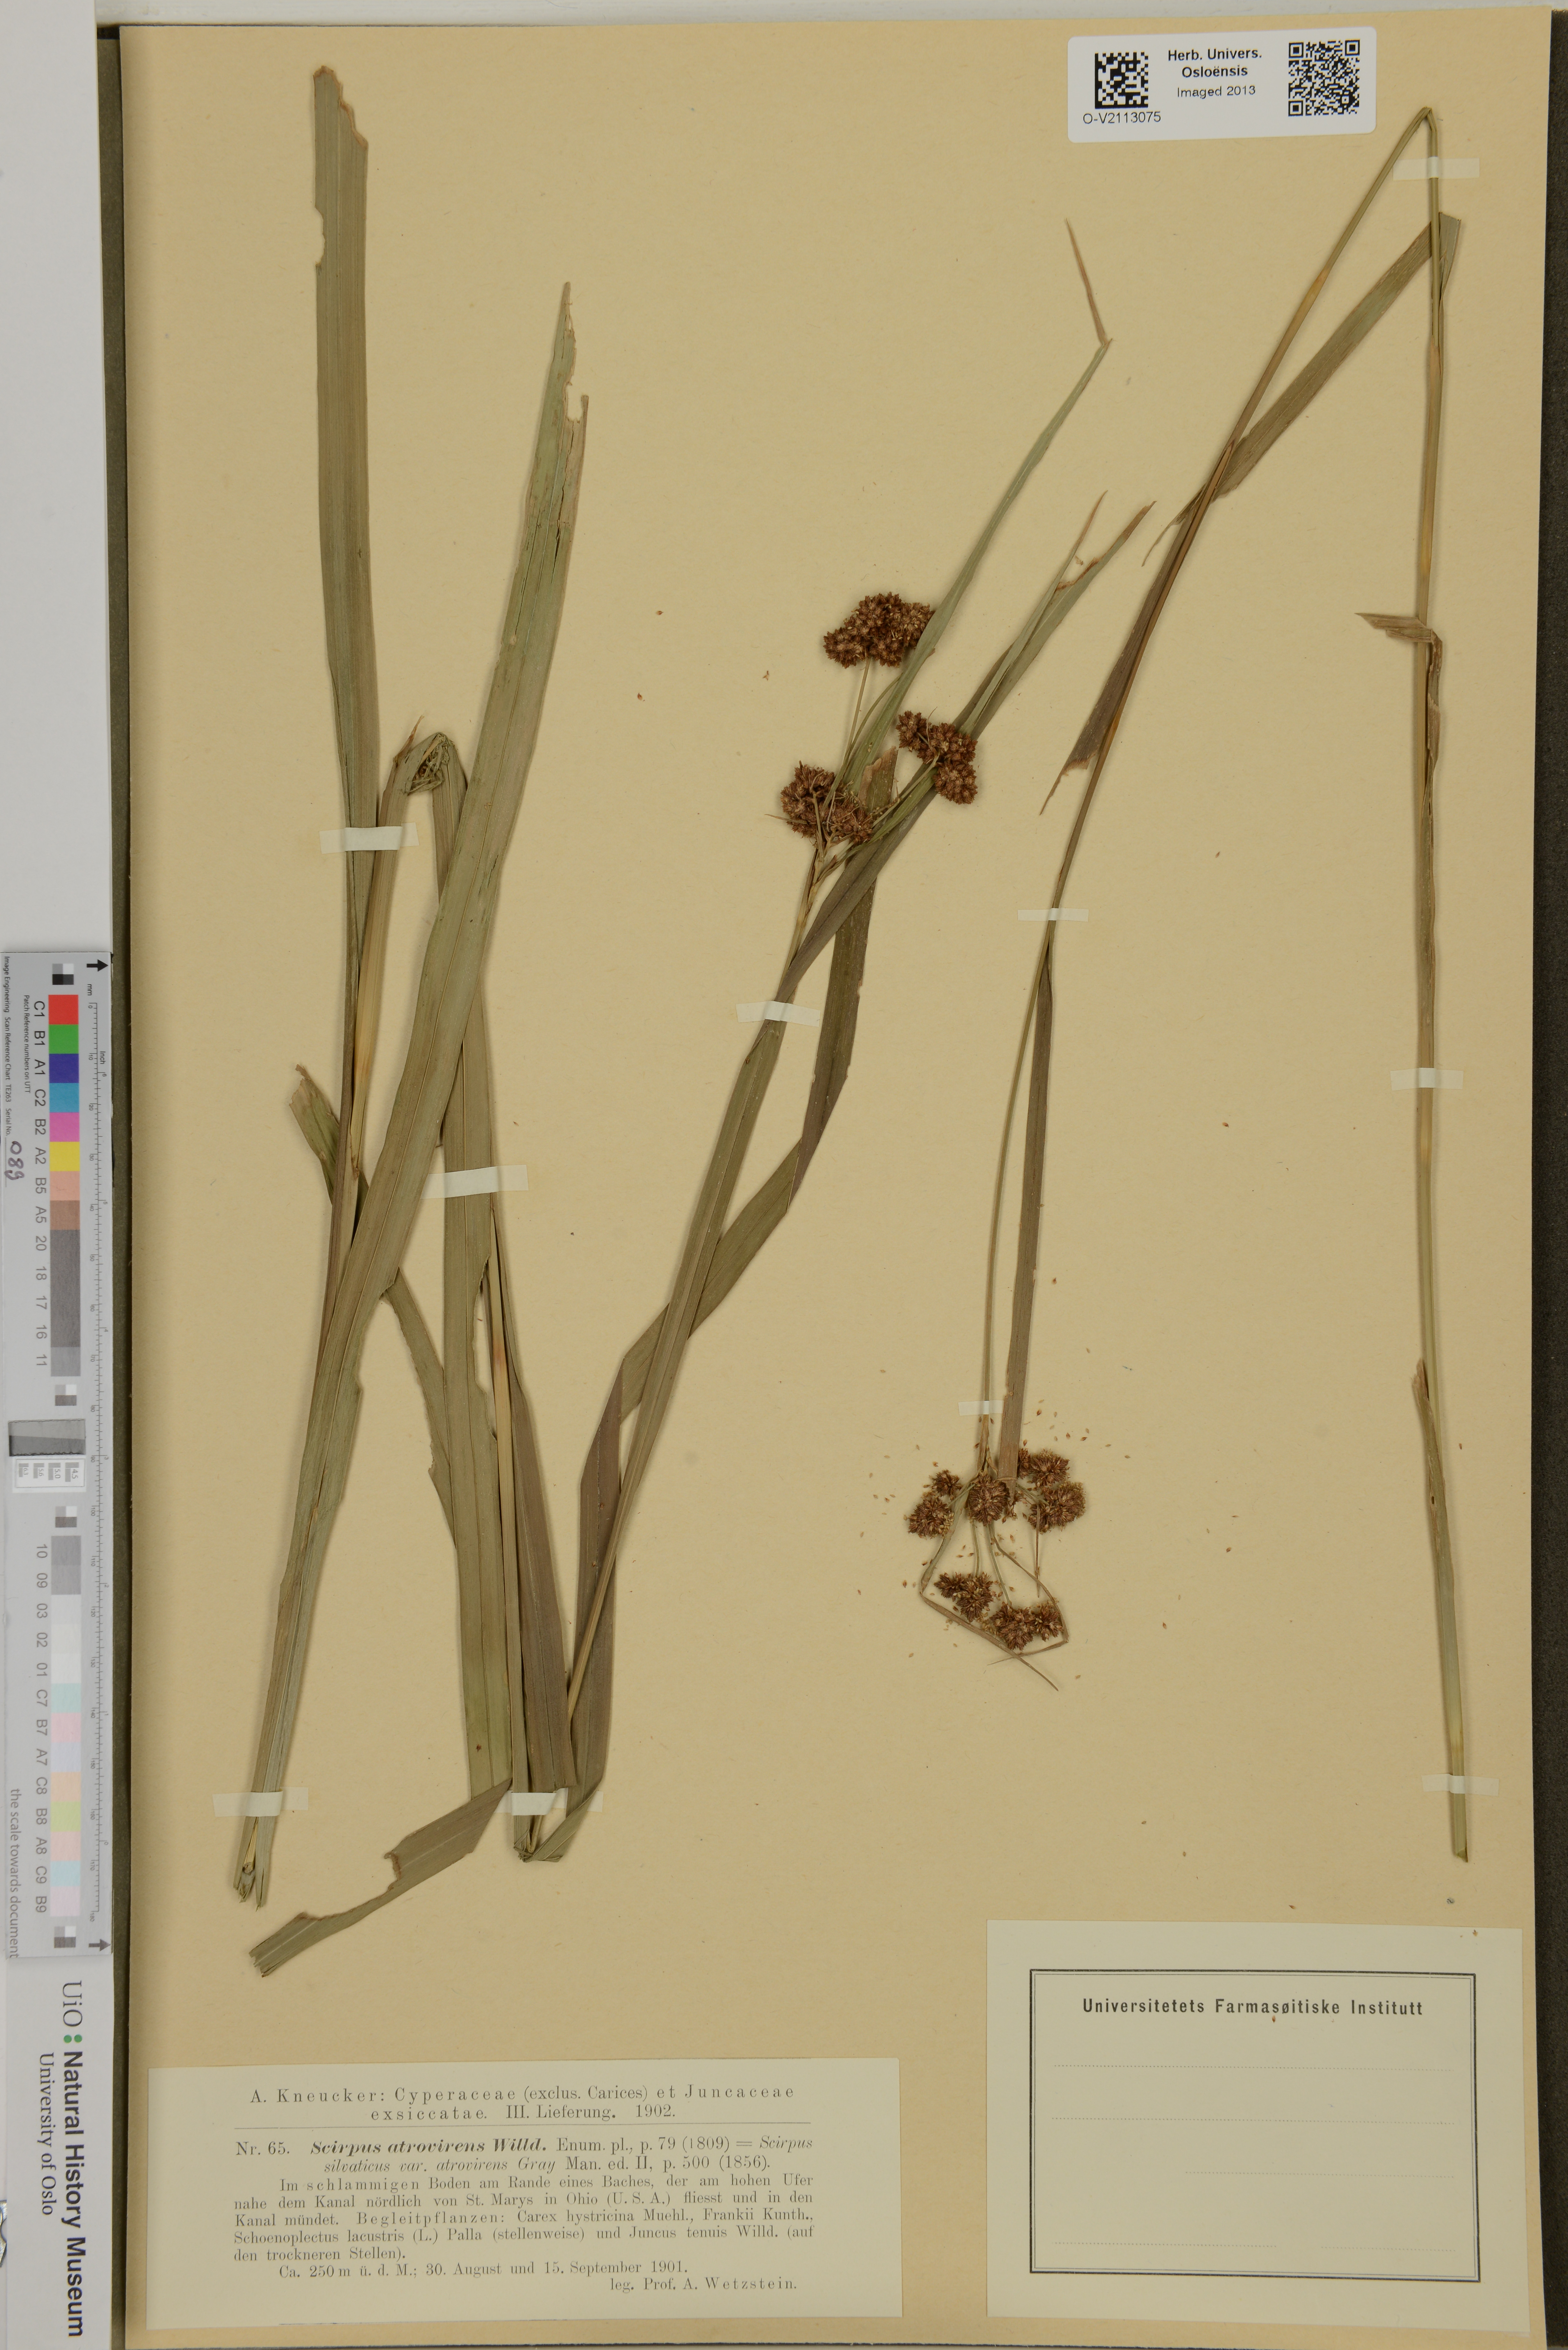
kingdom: Plantae
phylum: Tracheophyta
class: Liliopsida
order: Poales
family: Cyperaceae
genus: Scirpus
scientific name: Scirpus atrovirens
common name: Black bulrush
